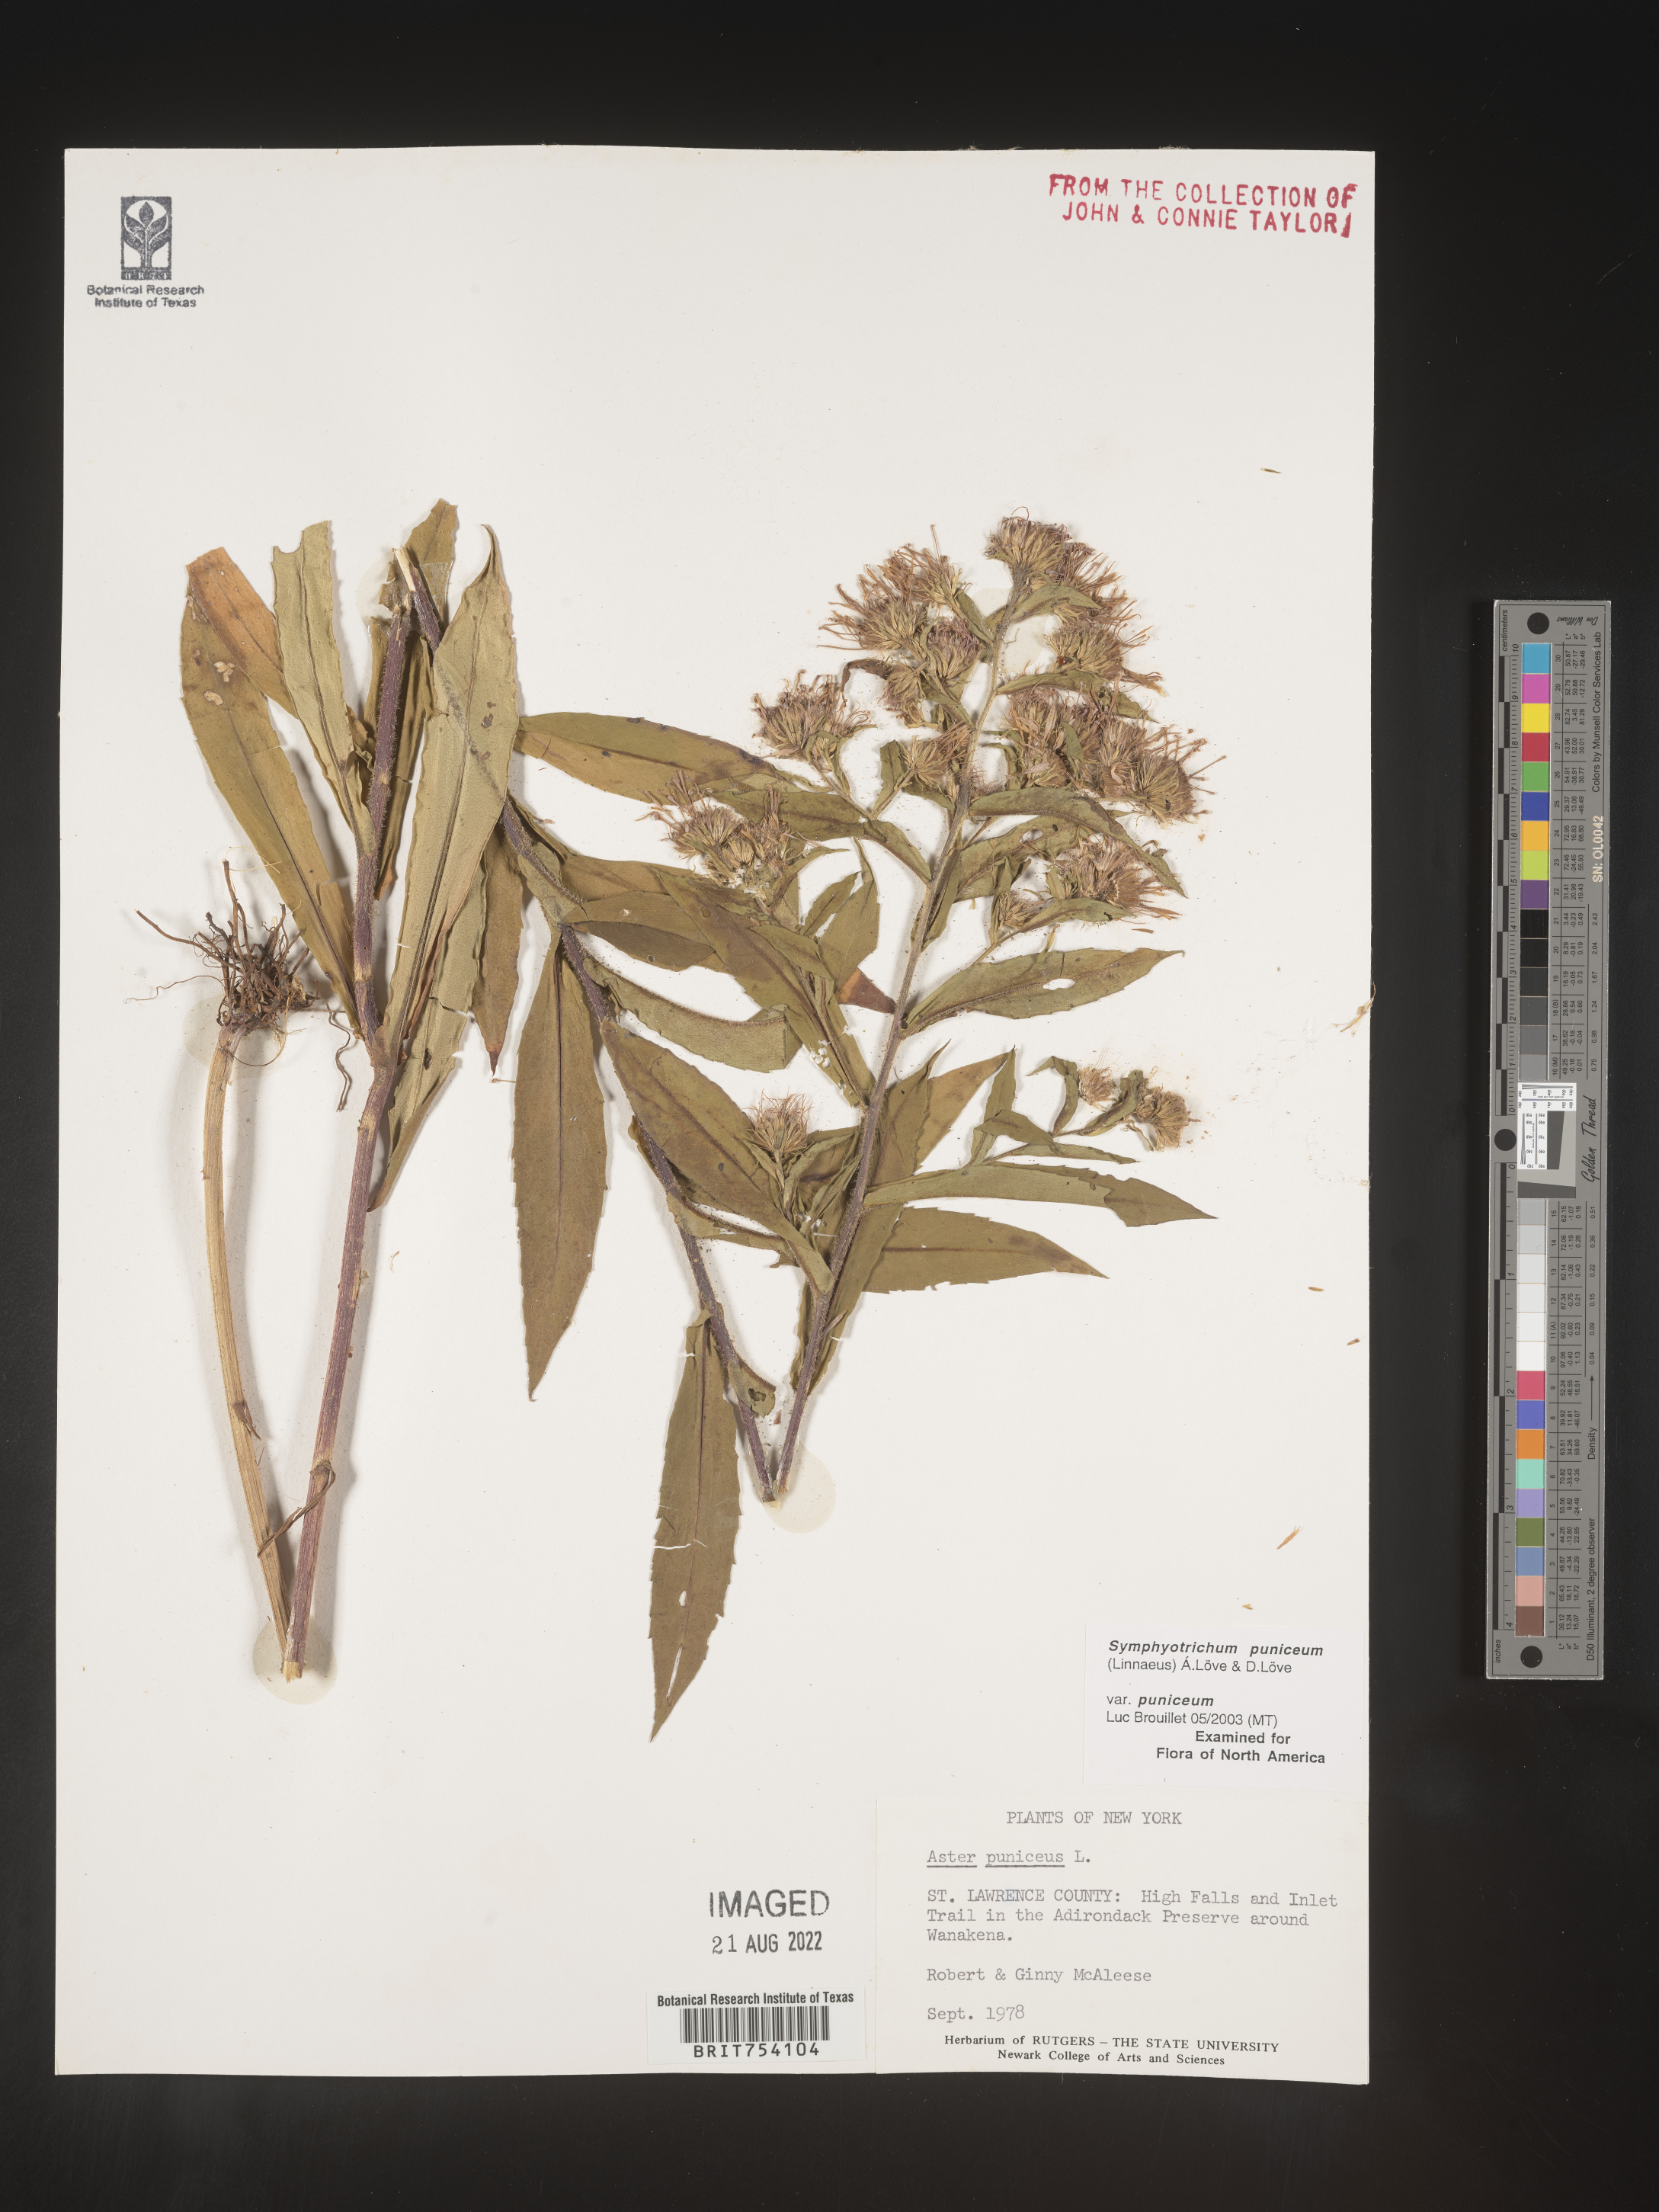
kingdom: Plantae
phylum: Tracheophyta
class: Magnoliopsida
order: Asterales
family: Asteraceae
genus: Symphyotrichum
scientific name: Symphyotrichum puniceum
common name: Bog aster
